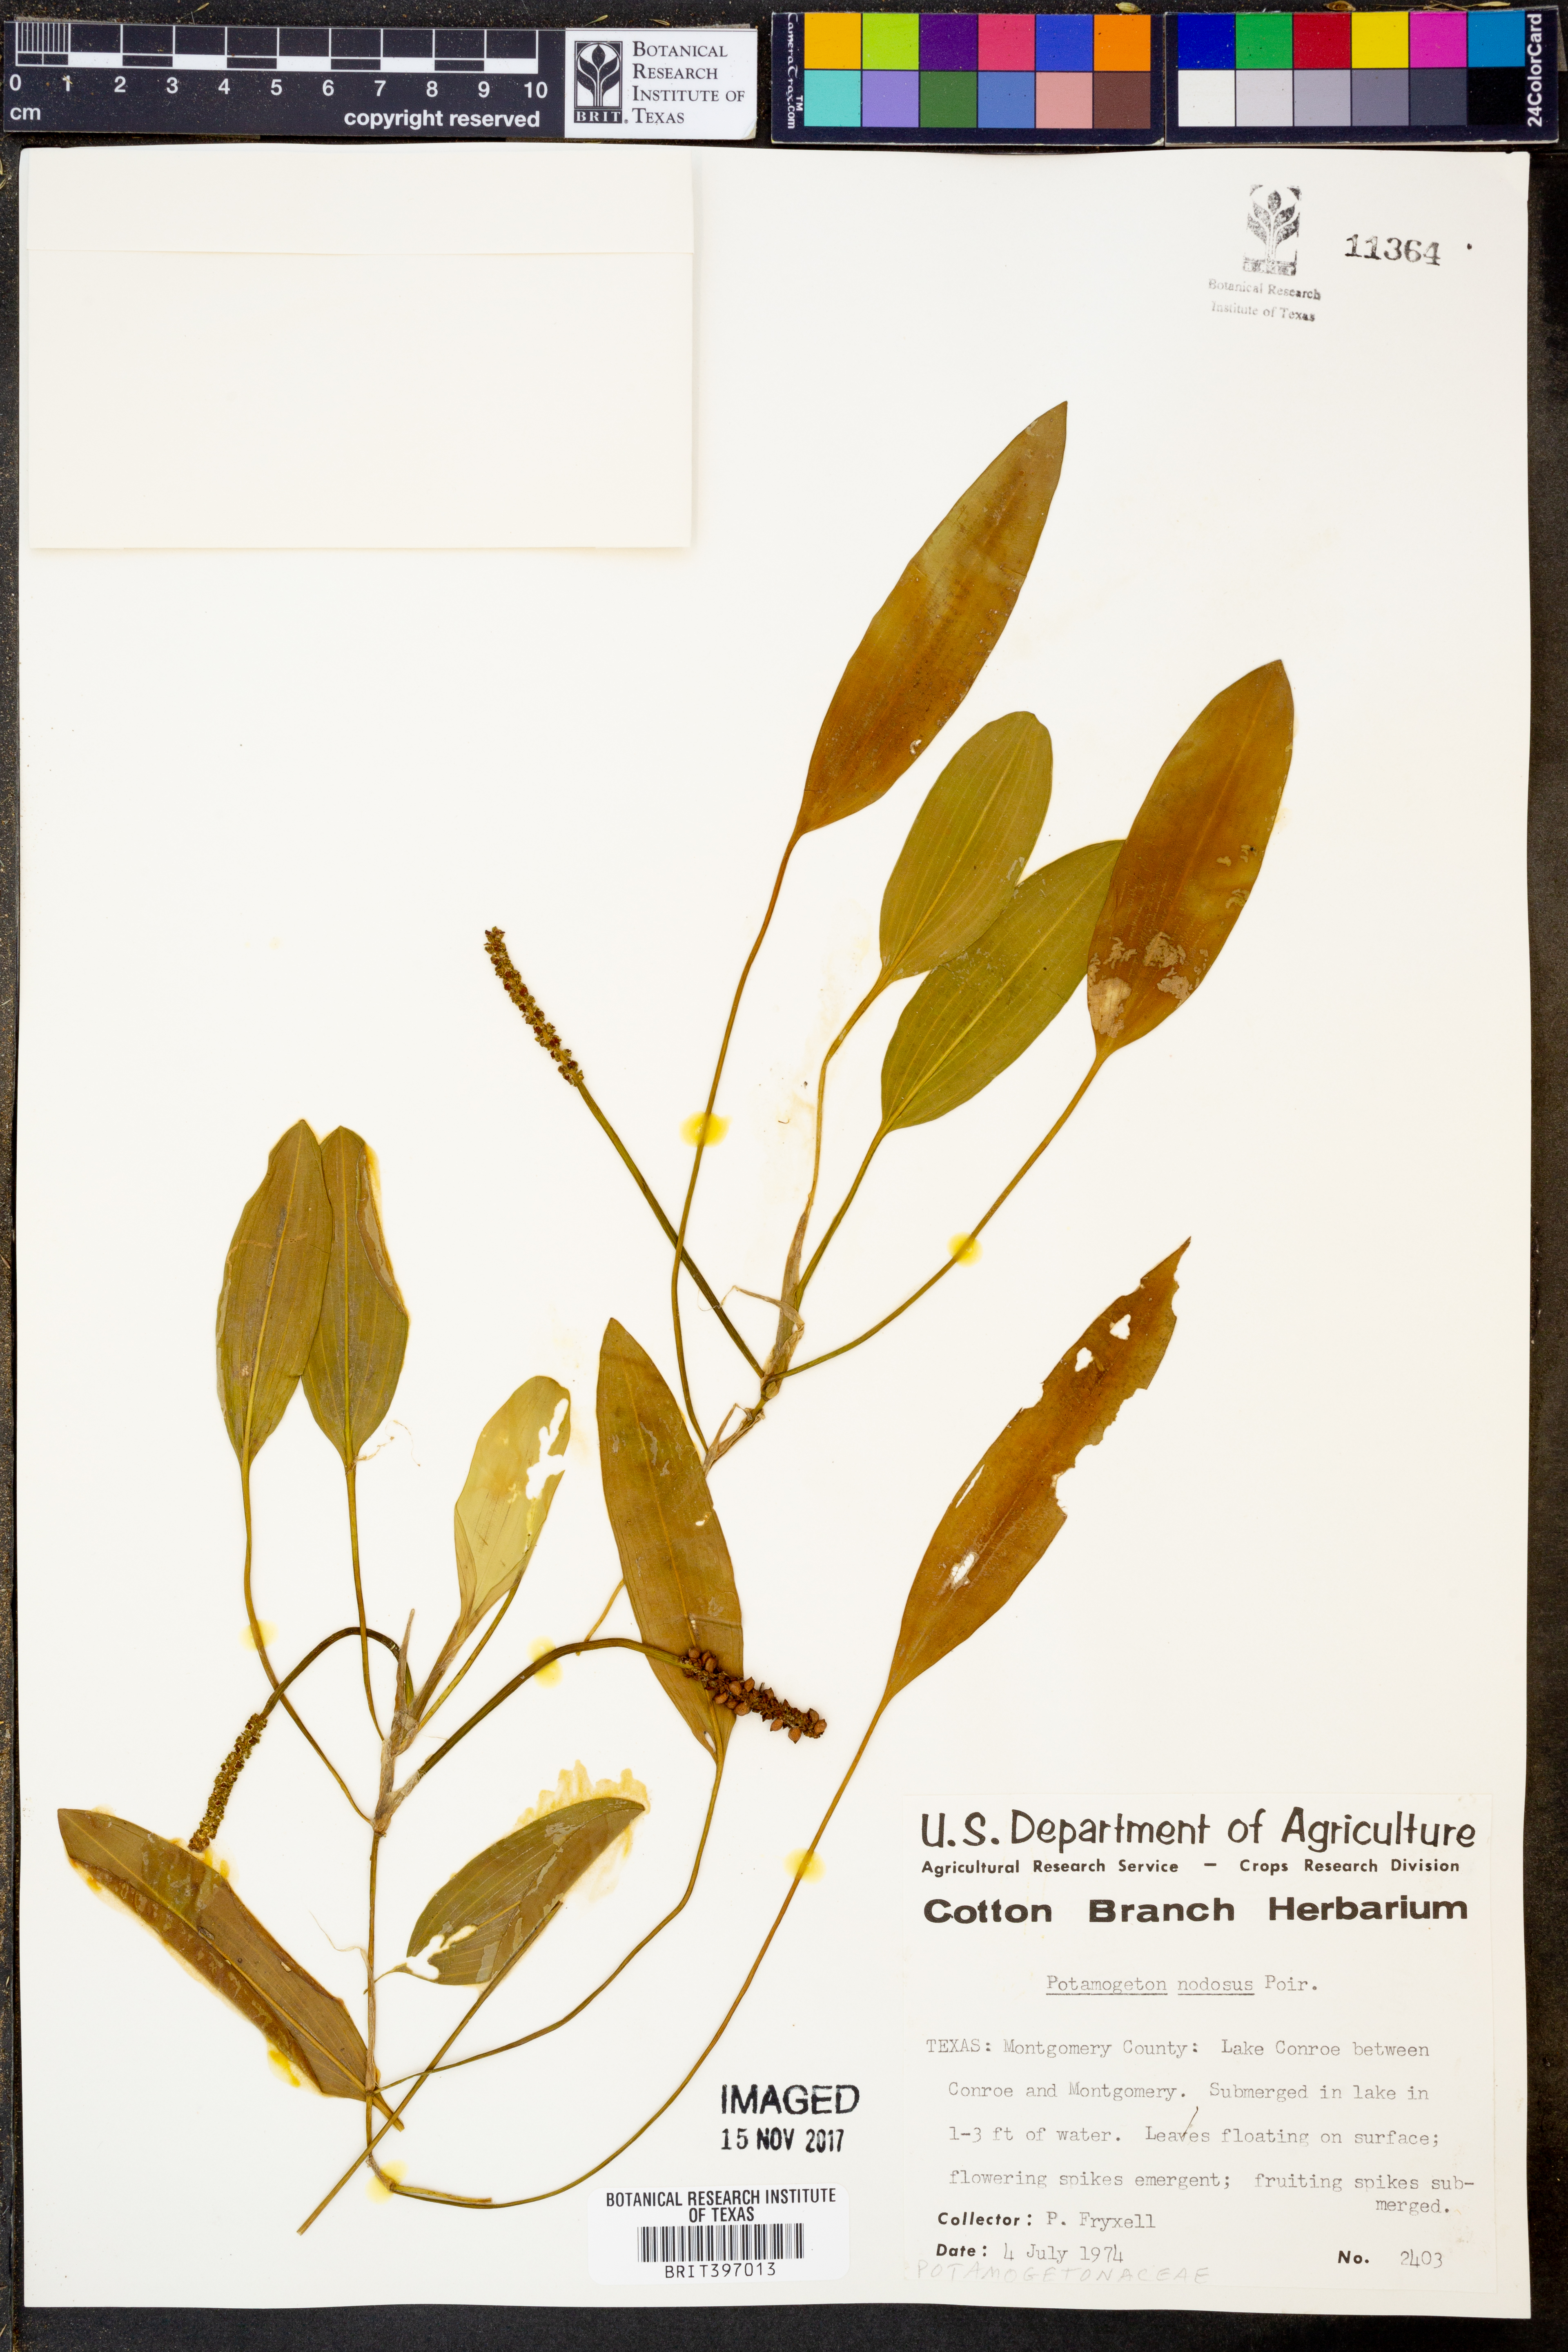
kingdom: Plantae
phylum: Tracheophyta
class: Liliopsida
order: Alismatales
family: Potamogetonaceae
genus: Potamogeton
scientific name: Potamogeton nodosus
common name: Loddon pondweed
